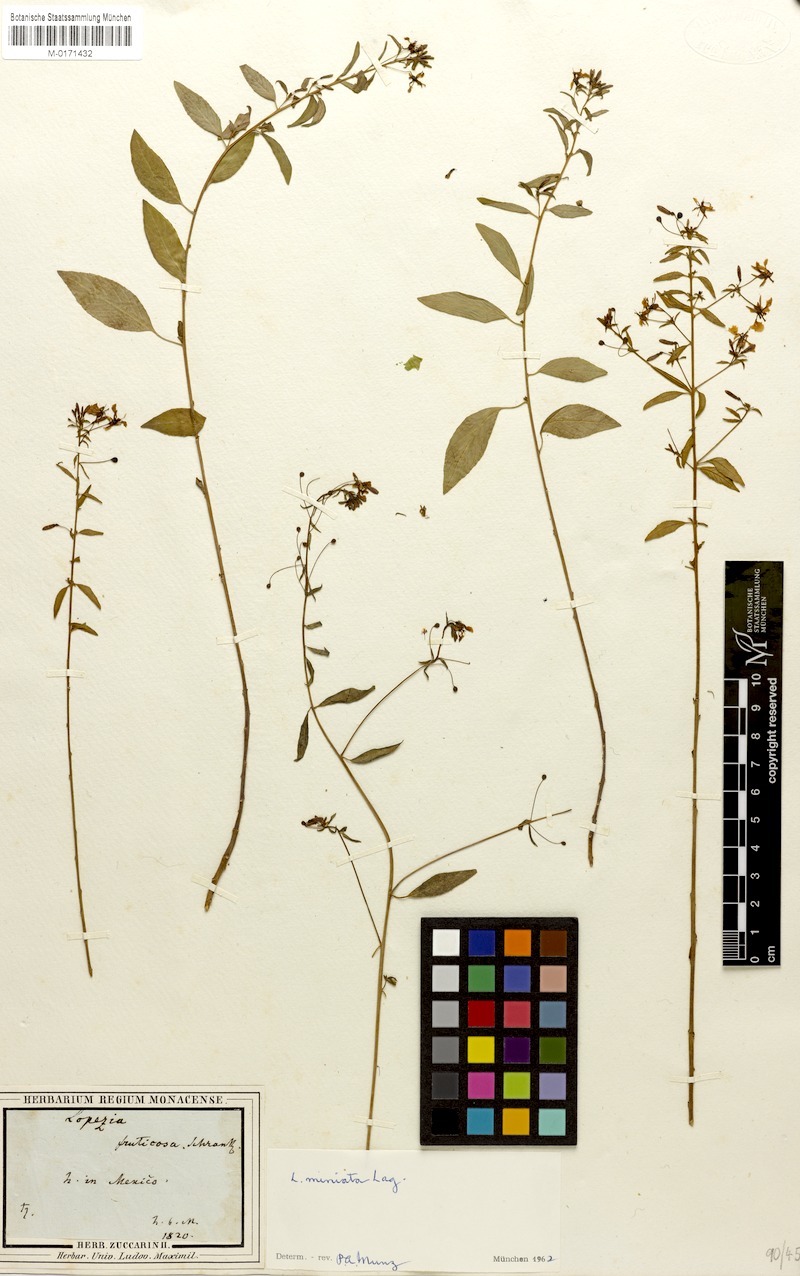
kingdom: Plantae
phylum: Tracheophyta
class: Magnoliopsida
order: Myrtales
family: Onagraceae
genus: Lopezia
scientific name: Lopezia miniata
